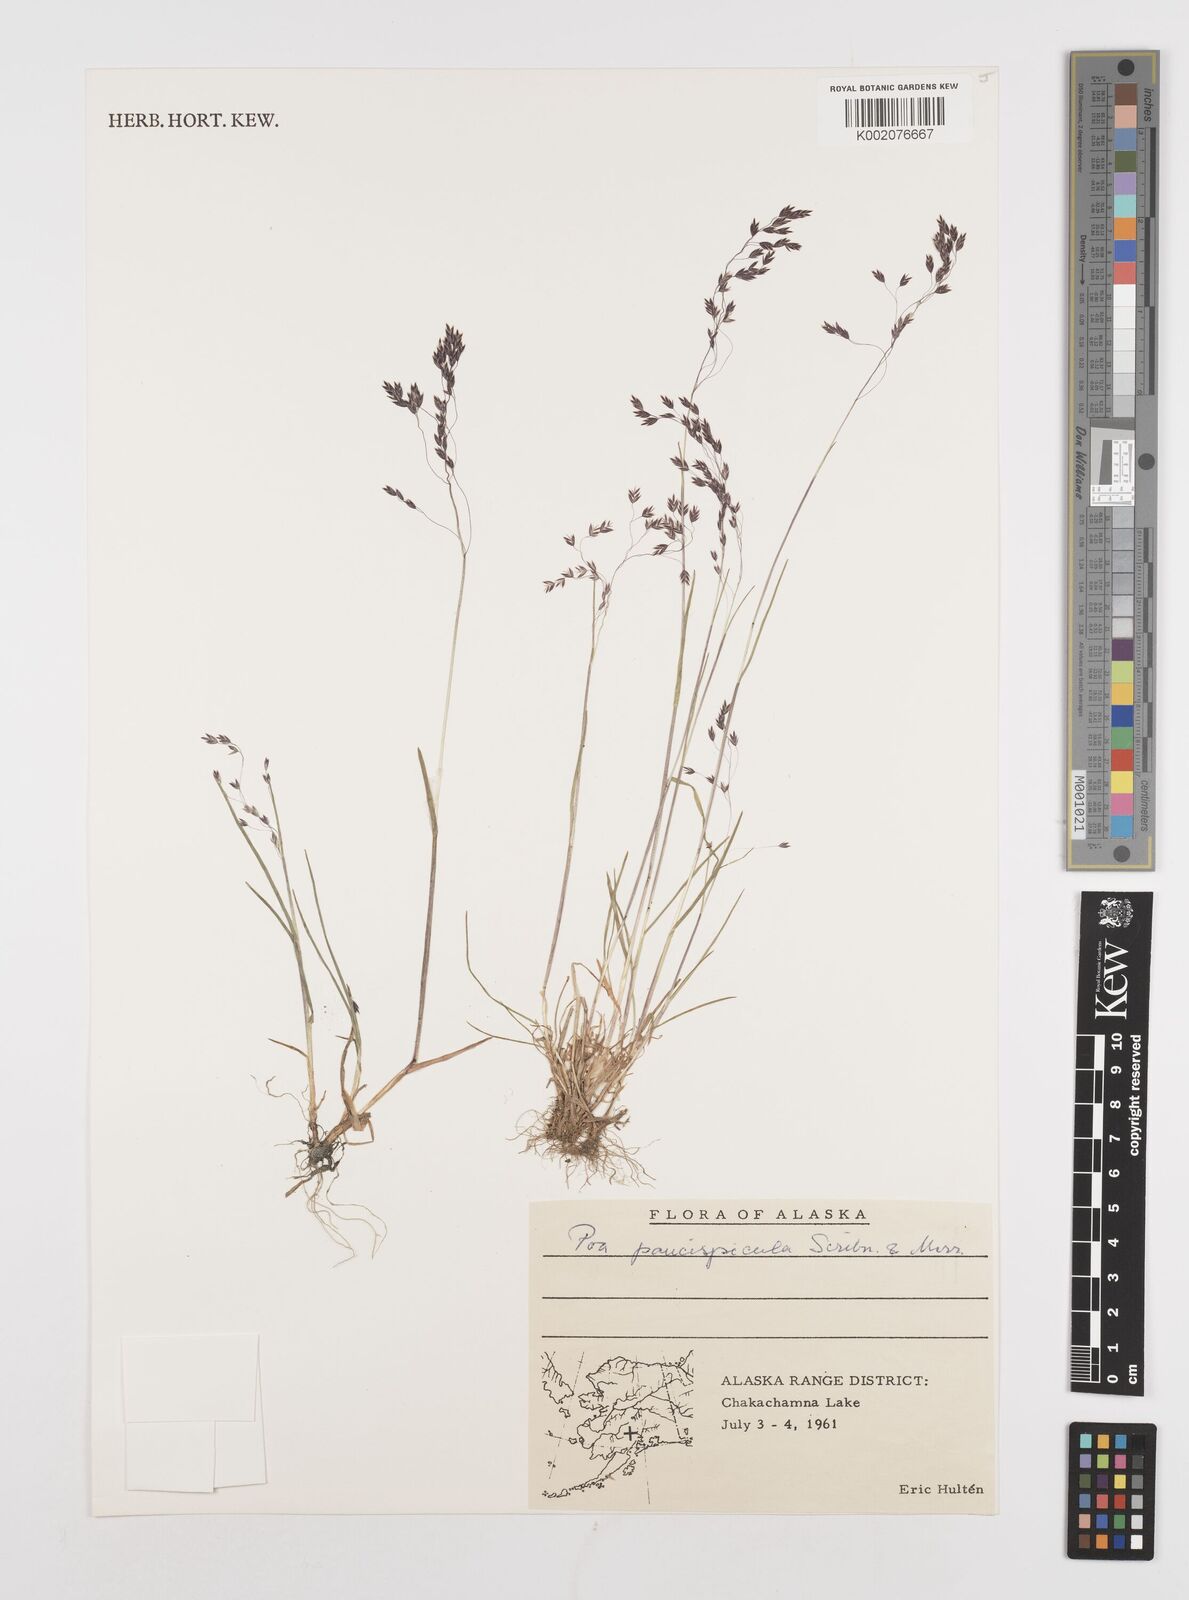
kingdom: Plantae
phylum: Tracheophyta
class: Liliopsida
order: Poales
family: Poaceae
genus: Poa
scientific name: Poa paucispicula
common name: Alaska bluegrass
